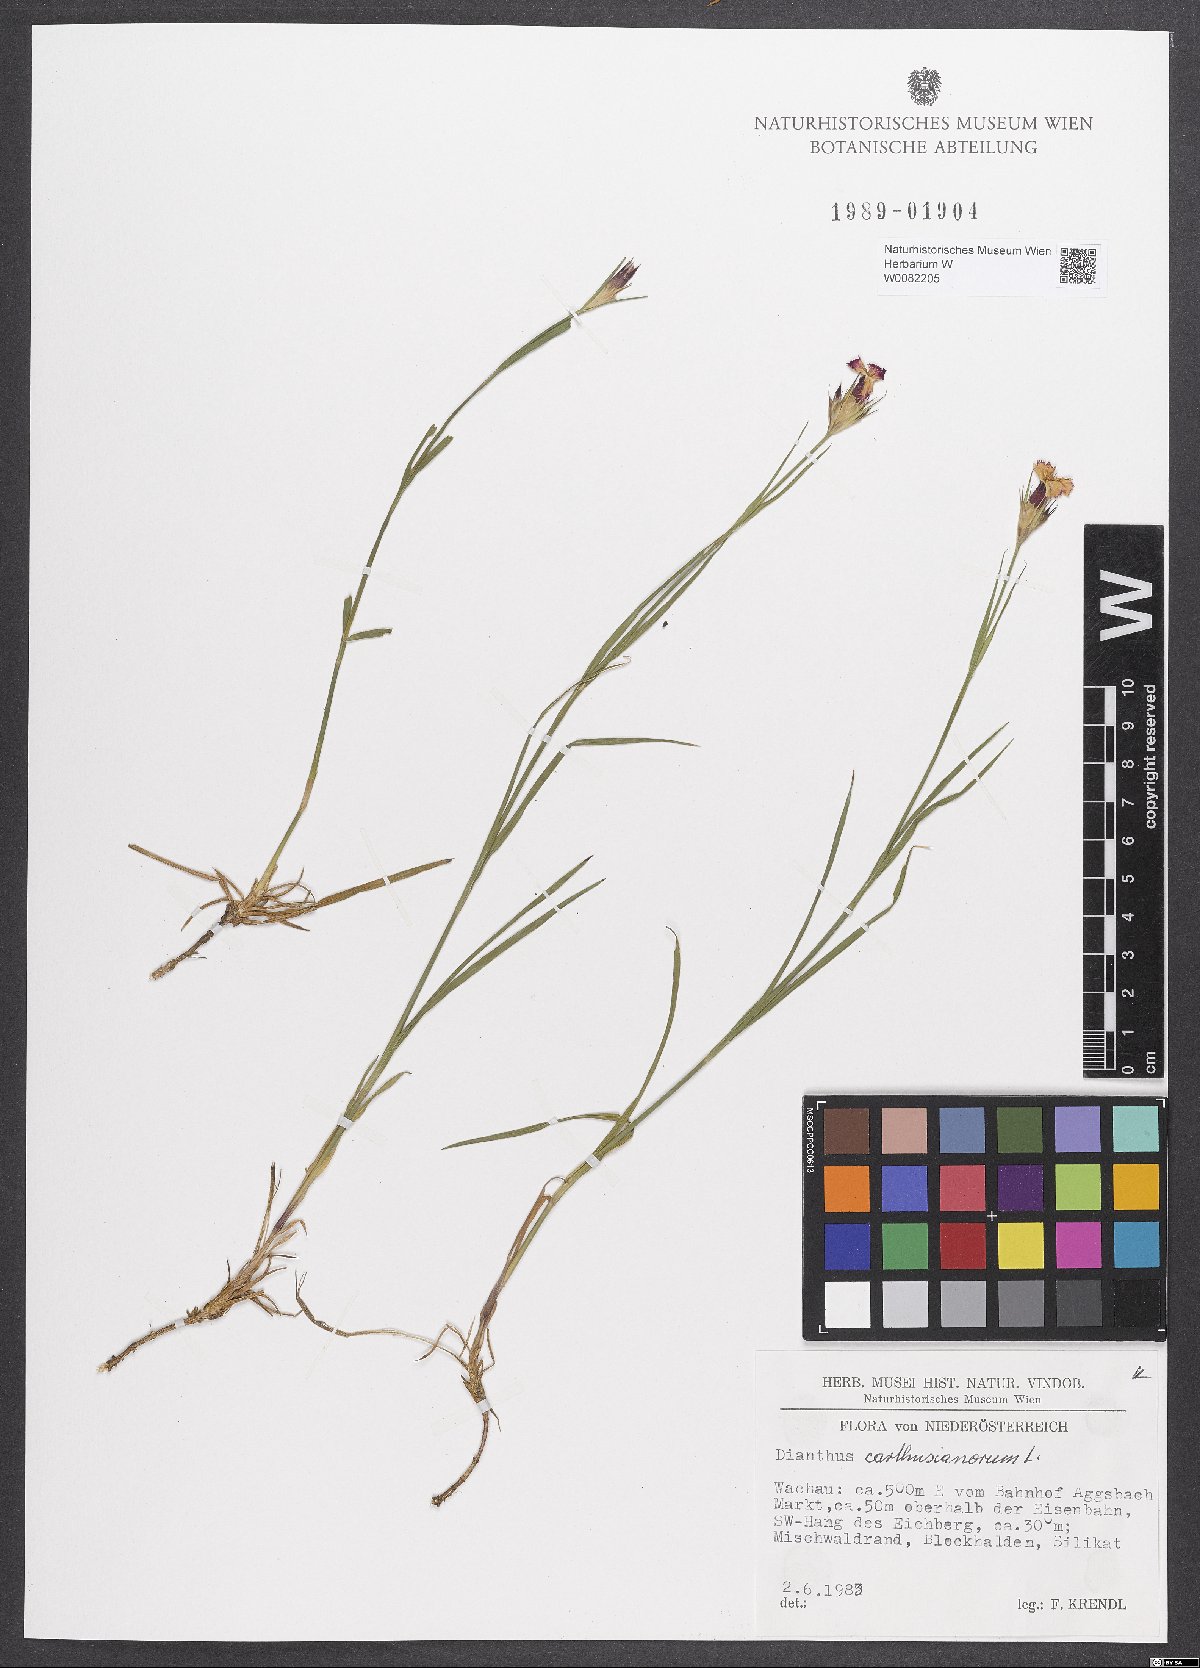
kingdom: Plantae
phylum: Tracheophyta
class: Magnoliopsida
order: Caryophyllales
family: Caryophyllaceae
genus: Dianthus
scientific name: Dianthus carthusianorum
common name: Carthusian pink
